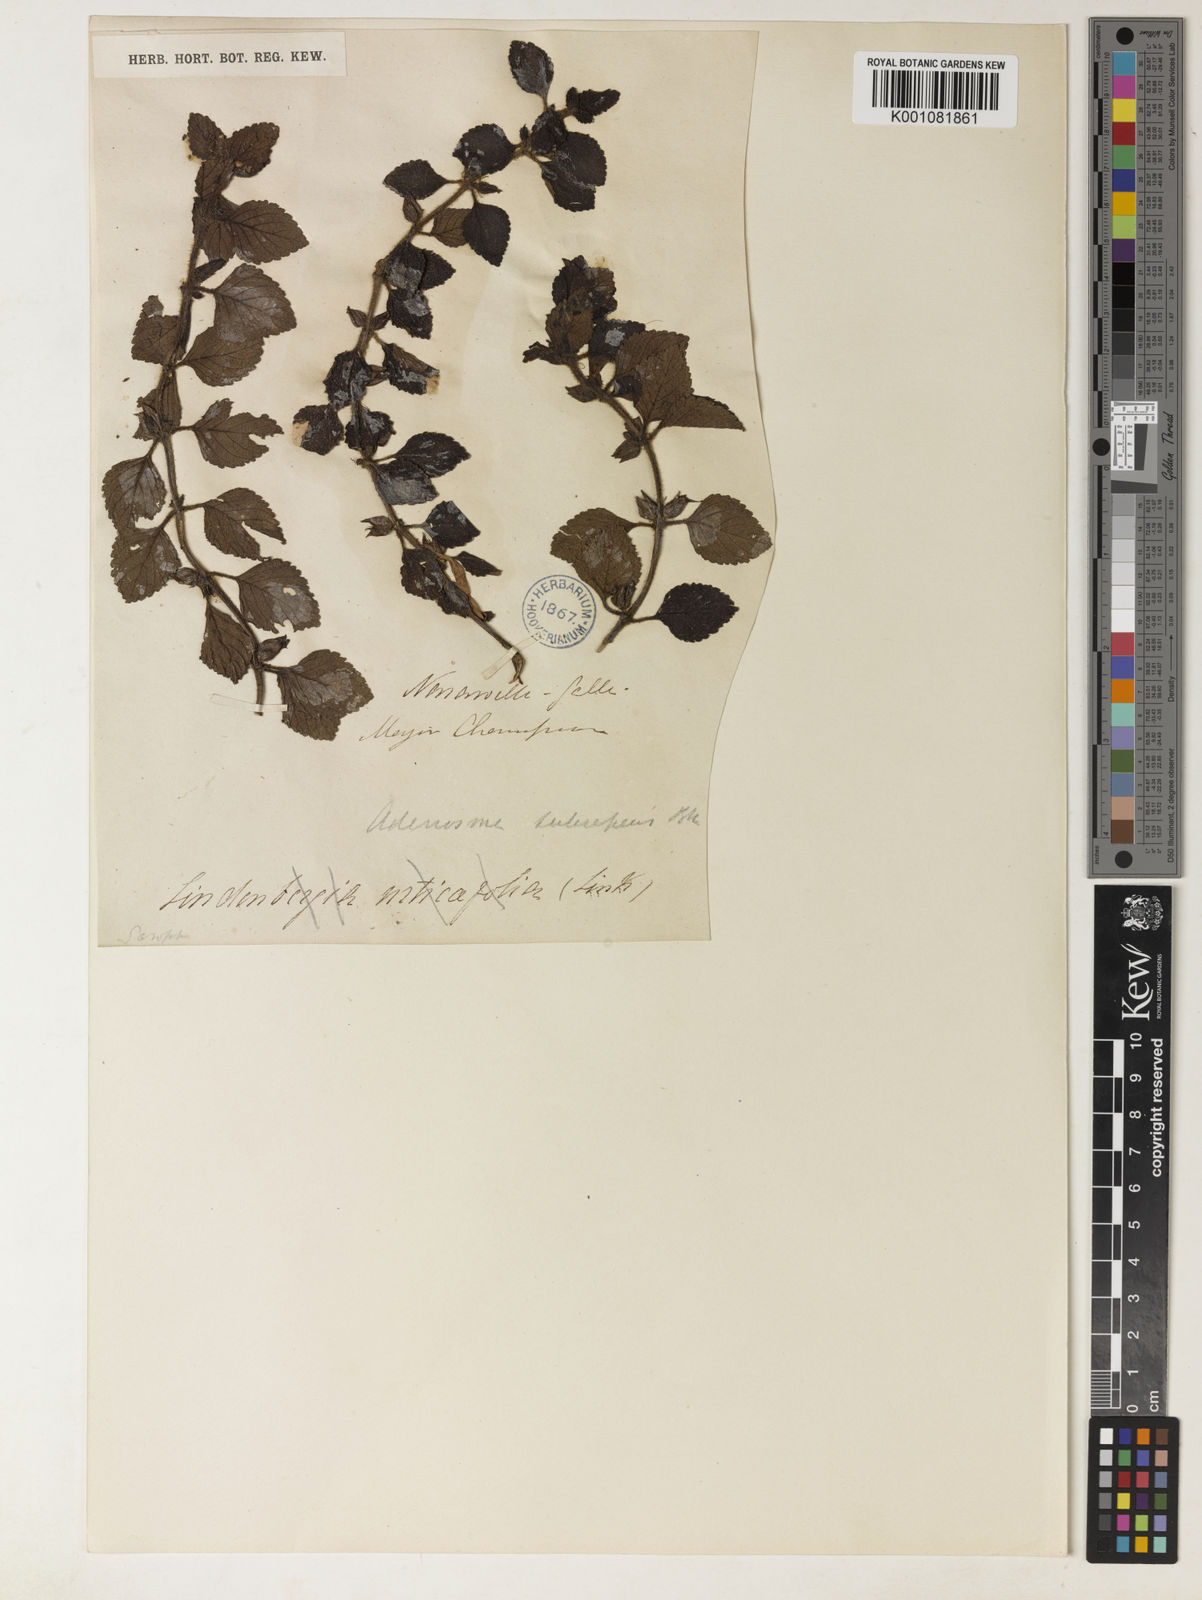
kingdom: Plantae
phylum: Tracheophyta
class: Magnoliopsida
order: Lamiales
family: Plantaginaceae
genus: Adenosma
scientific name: Adenosma subrepens
